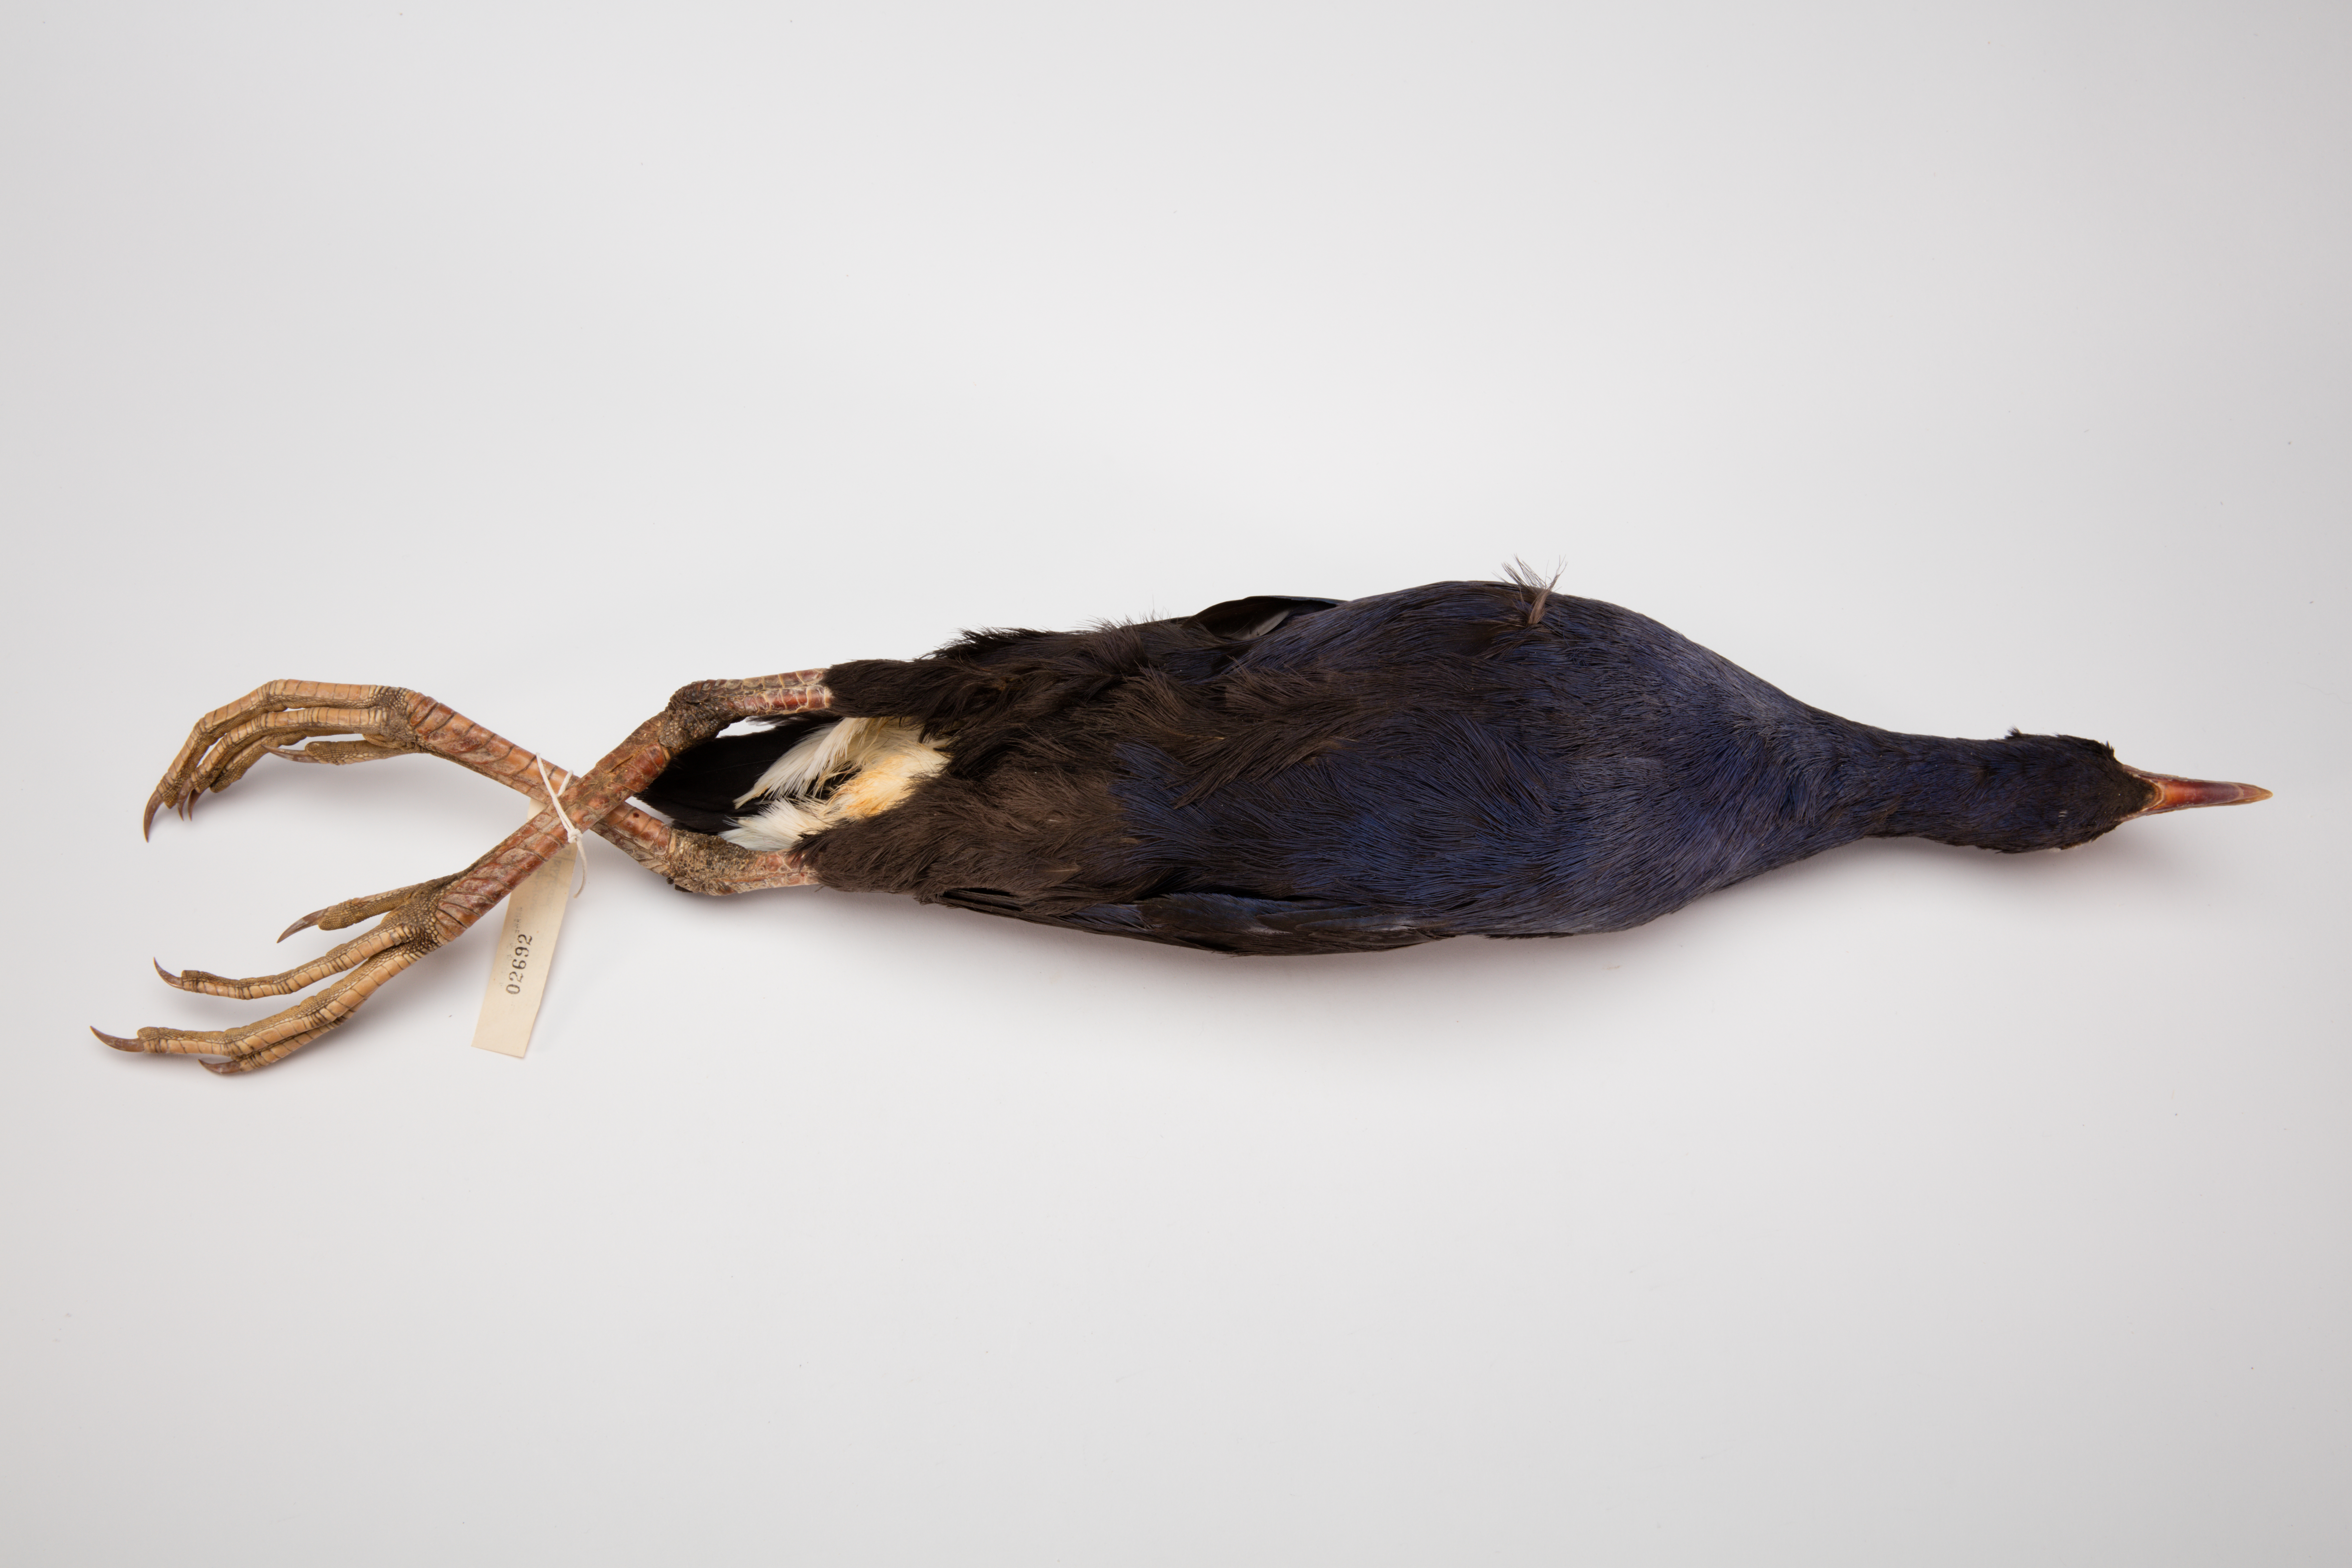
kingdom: Animalia
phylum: Chordata
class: Aves
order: Gruiformes
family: Rallidae
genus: Porphyrio
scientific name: Porphyrio melanotus
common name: Australasian swamphen
